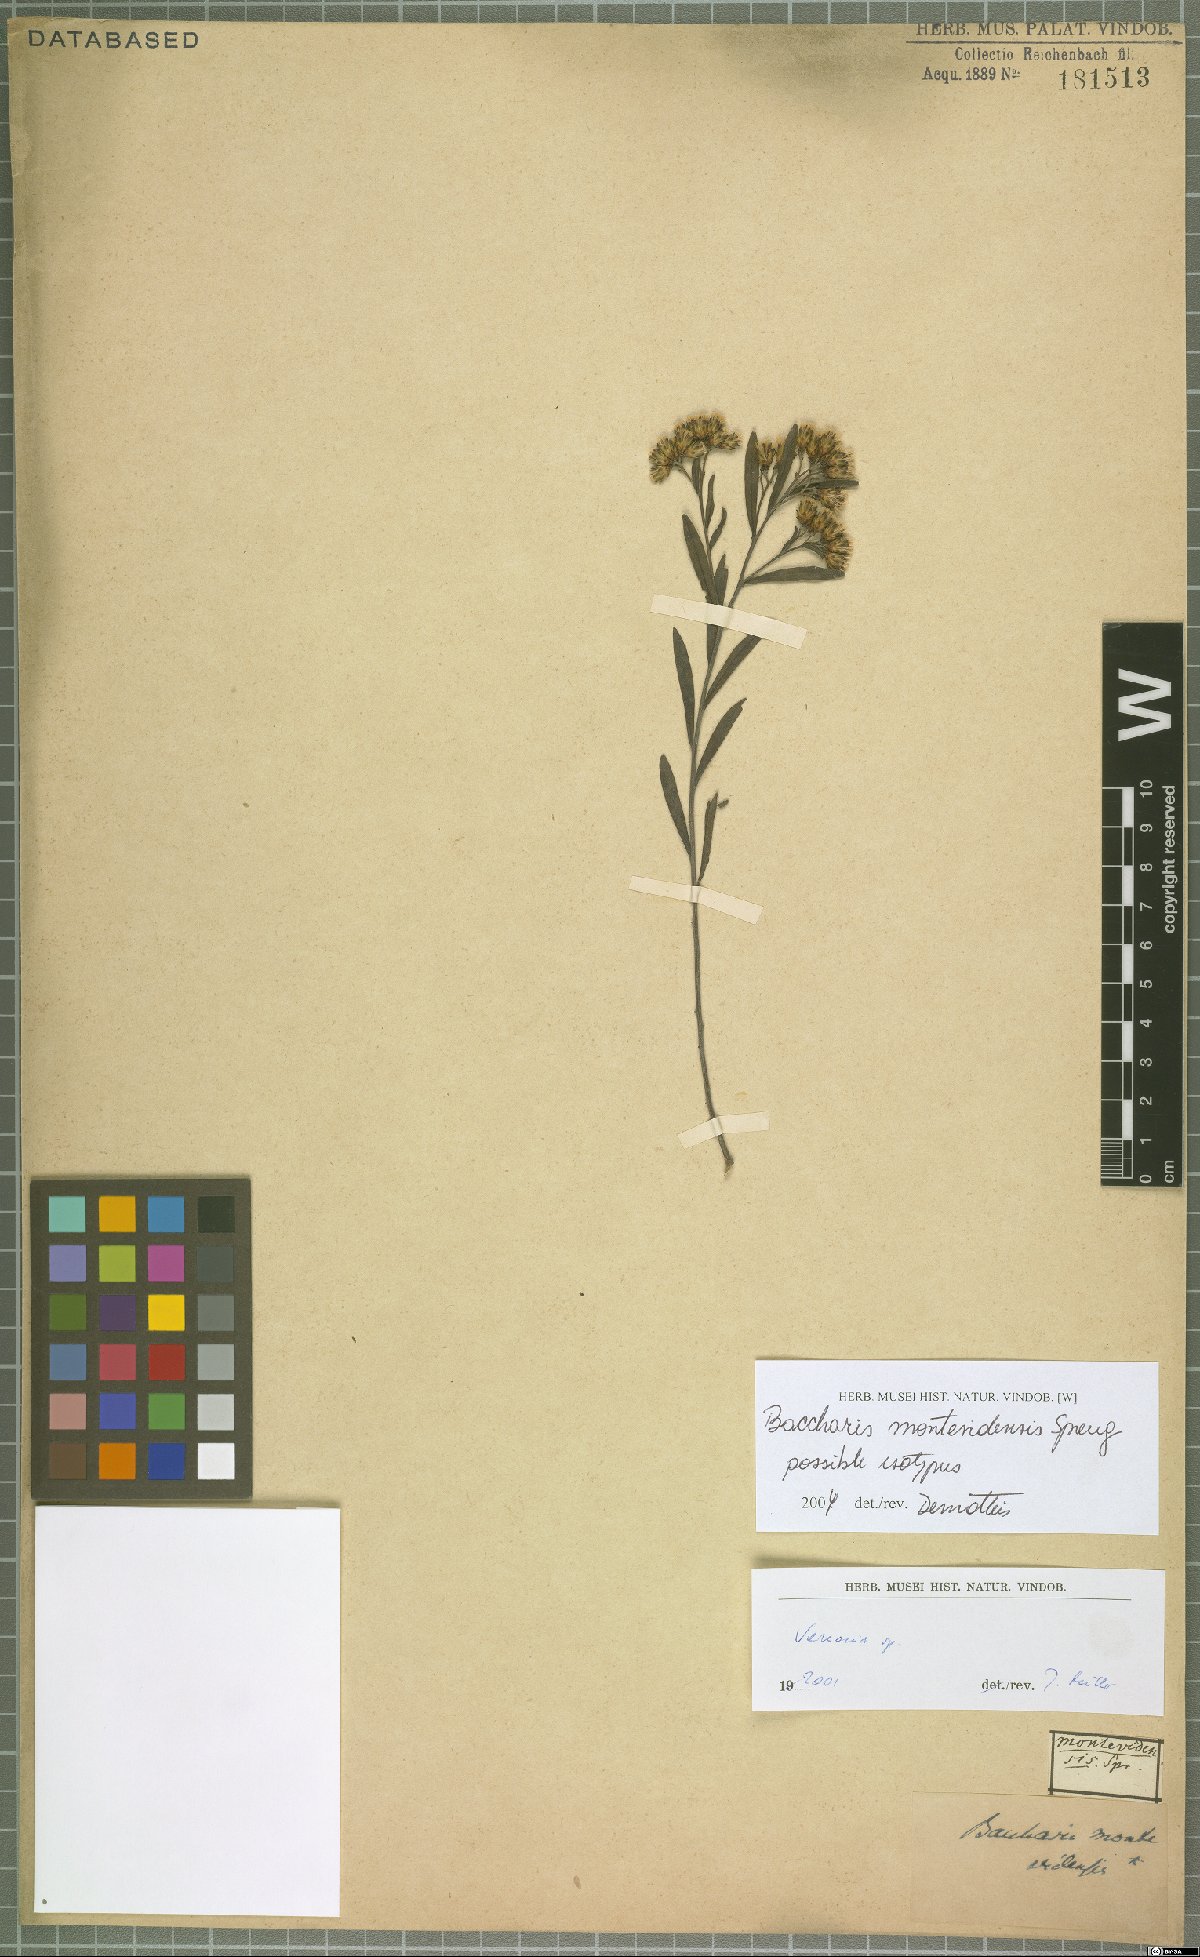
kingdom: Plantae
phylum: Tracheophyta
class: Magnoliopsida
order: Asterales
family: Asteraceae
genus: Vernonanthura
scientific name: Vernonanthura montevidensis
